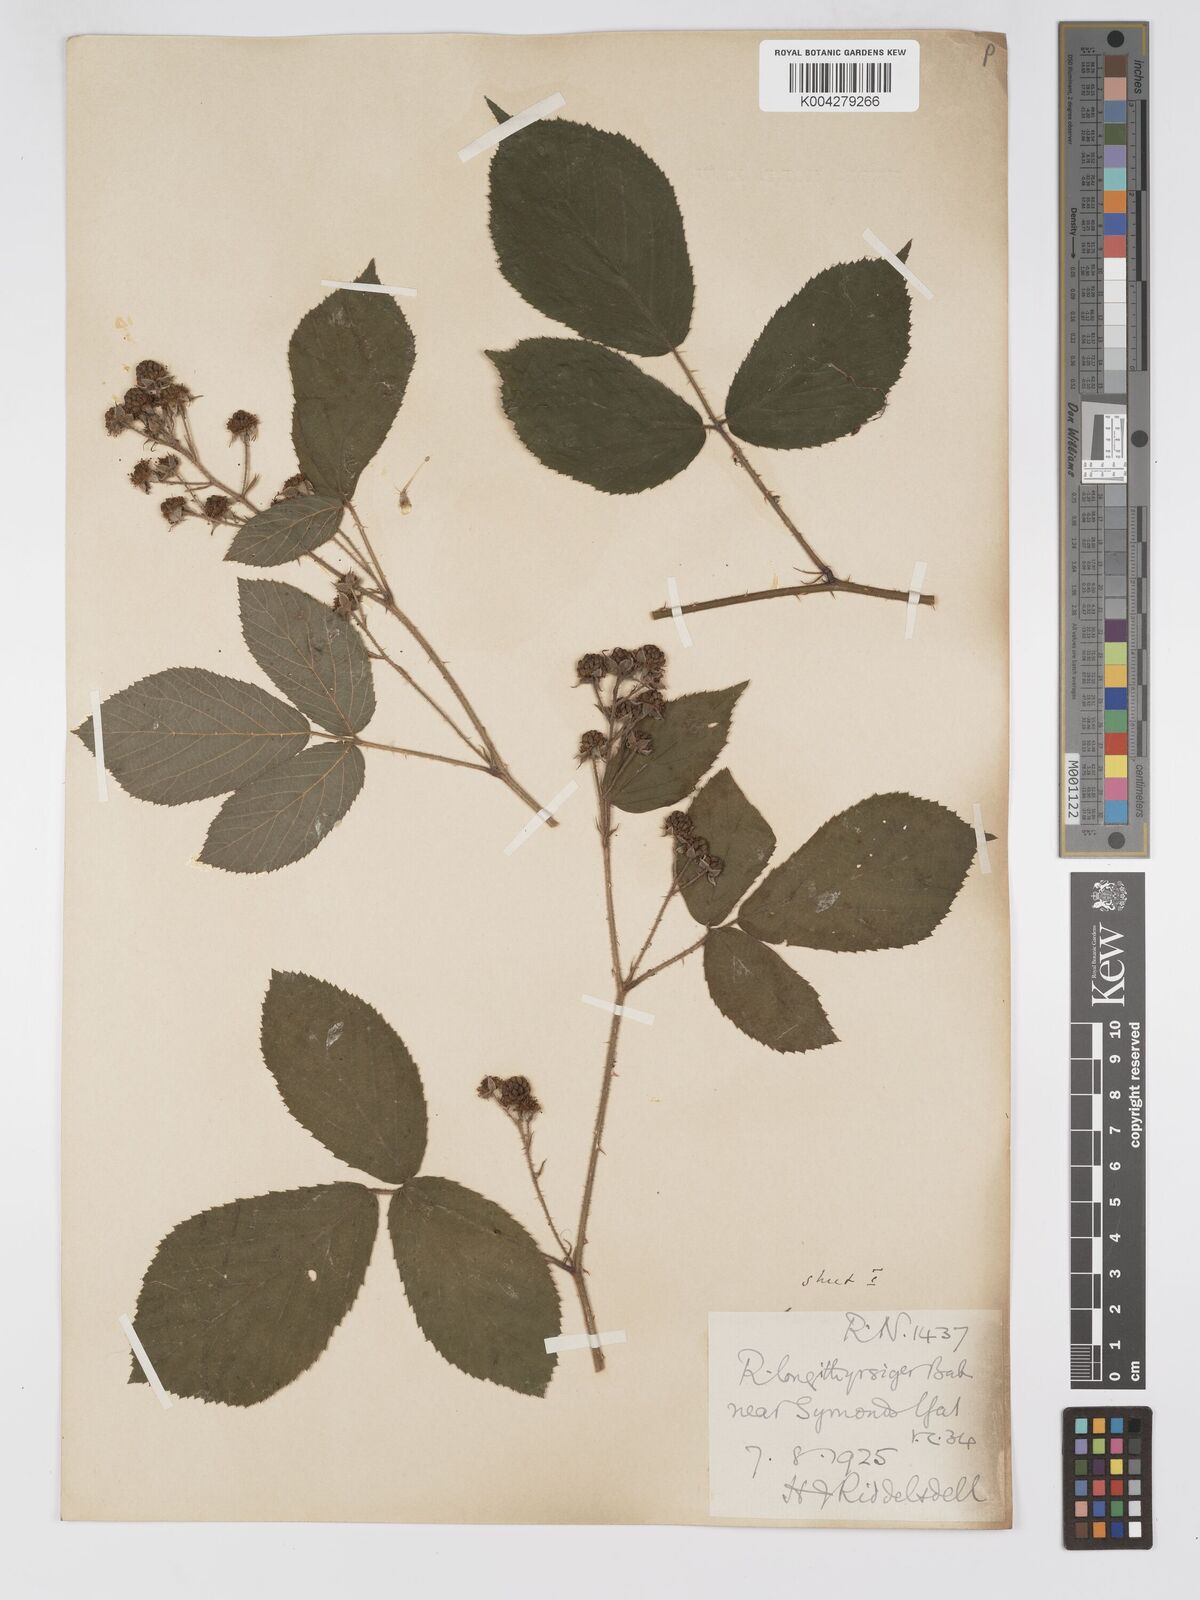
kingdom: Plantae
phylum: Tracheophyta
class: Magnoliopsida
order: Rosales
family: Rosaceae
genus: Rubus
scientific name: Rubus longithyrsiger
